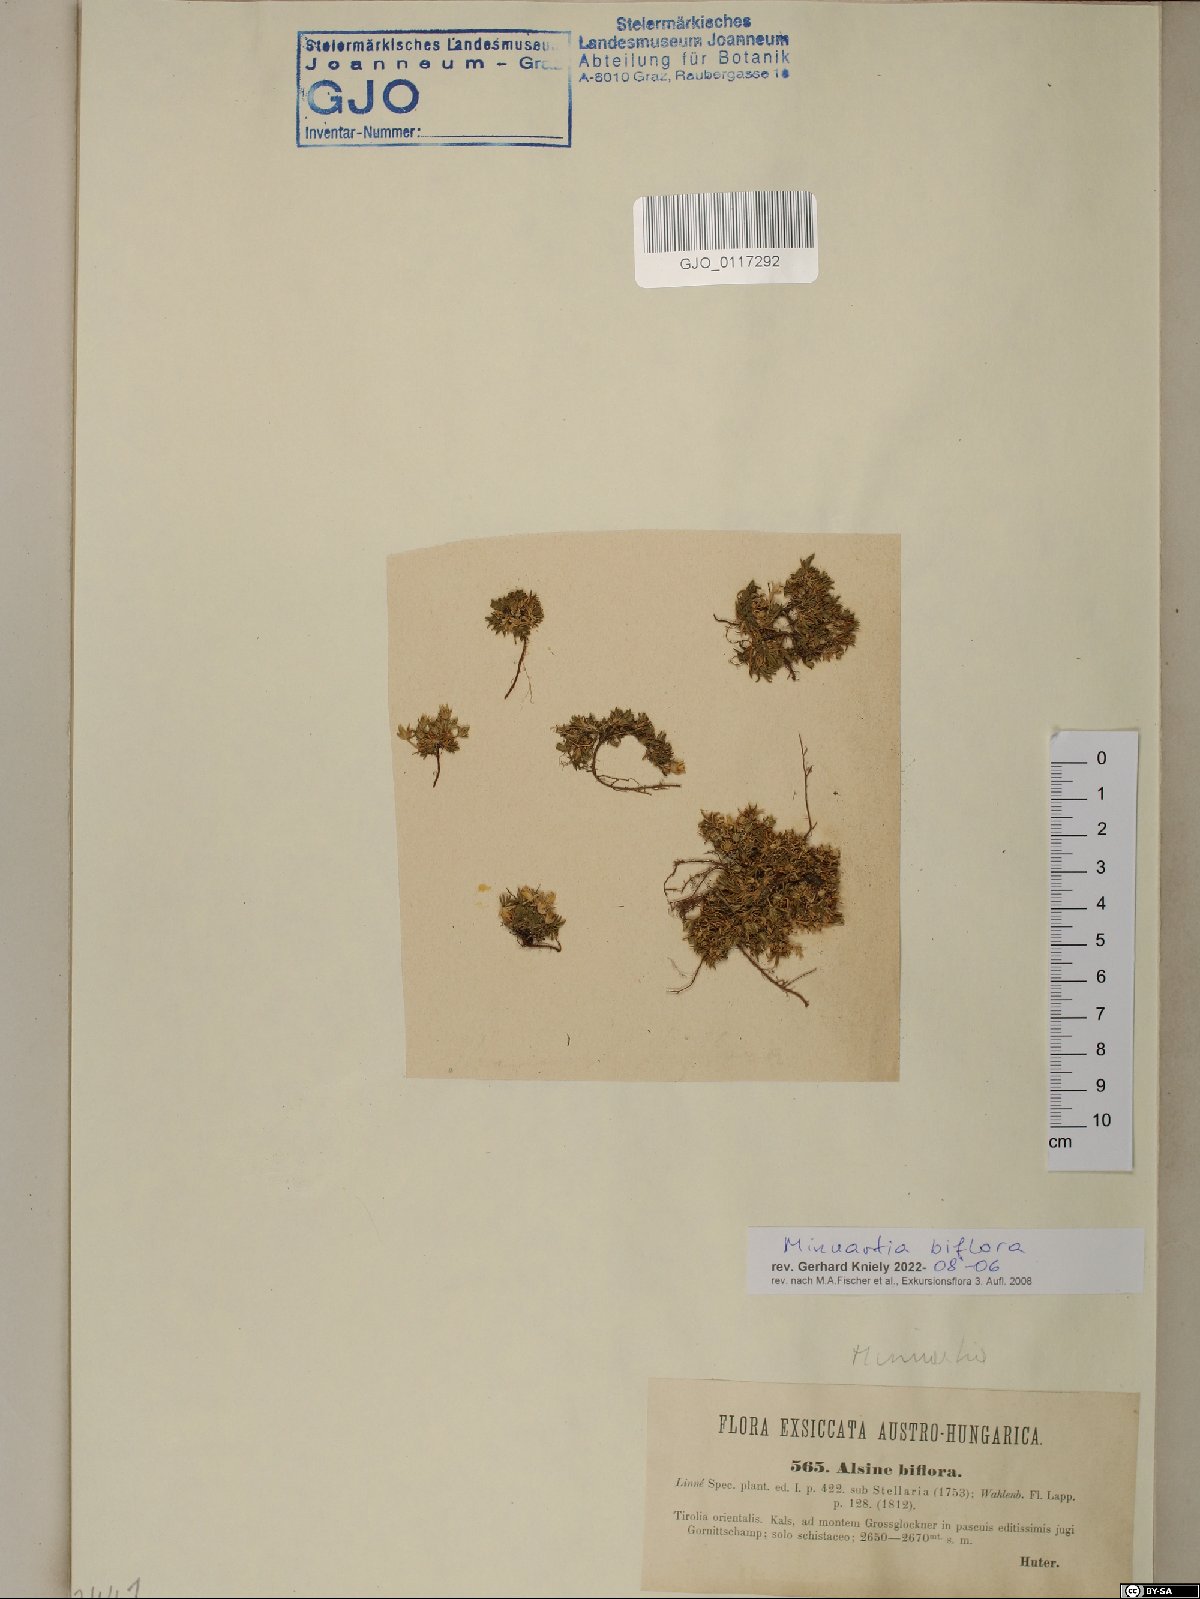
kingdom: Plantae
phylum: Tracheophyta
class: Magnoliopsida
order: Caryophyllales
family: Caryophyllaceae
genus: Cherleria
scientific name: Cherleria biflora
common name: Mountain sandwort
